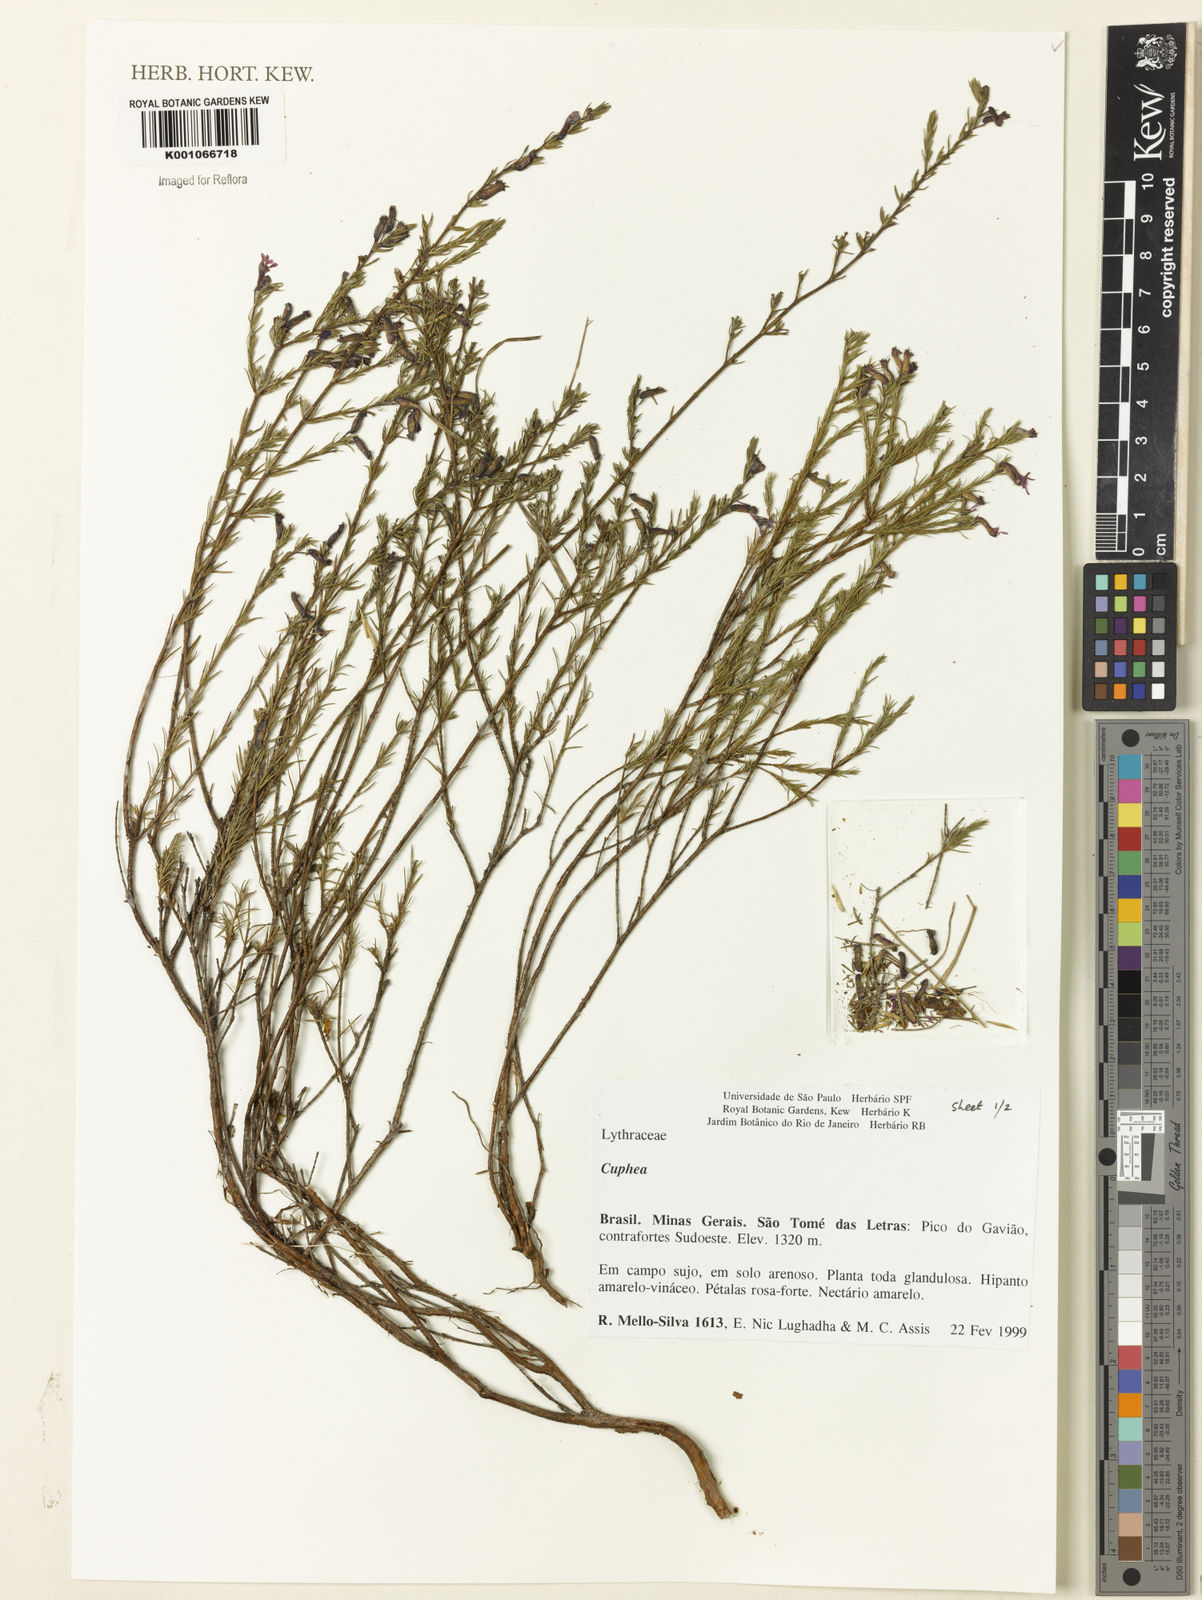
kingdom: Plantae
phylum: Tracheophyta
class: Magnoliopsida
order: Myrtales
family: Lythraceae
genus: Cuphea
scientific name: Cuphea
